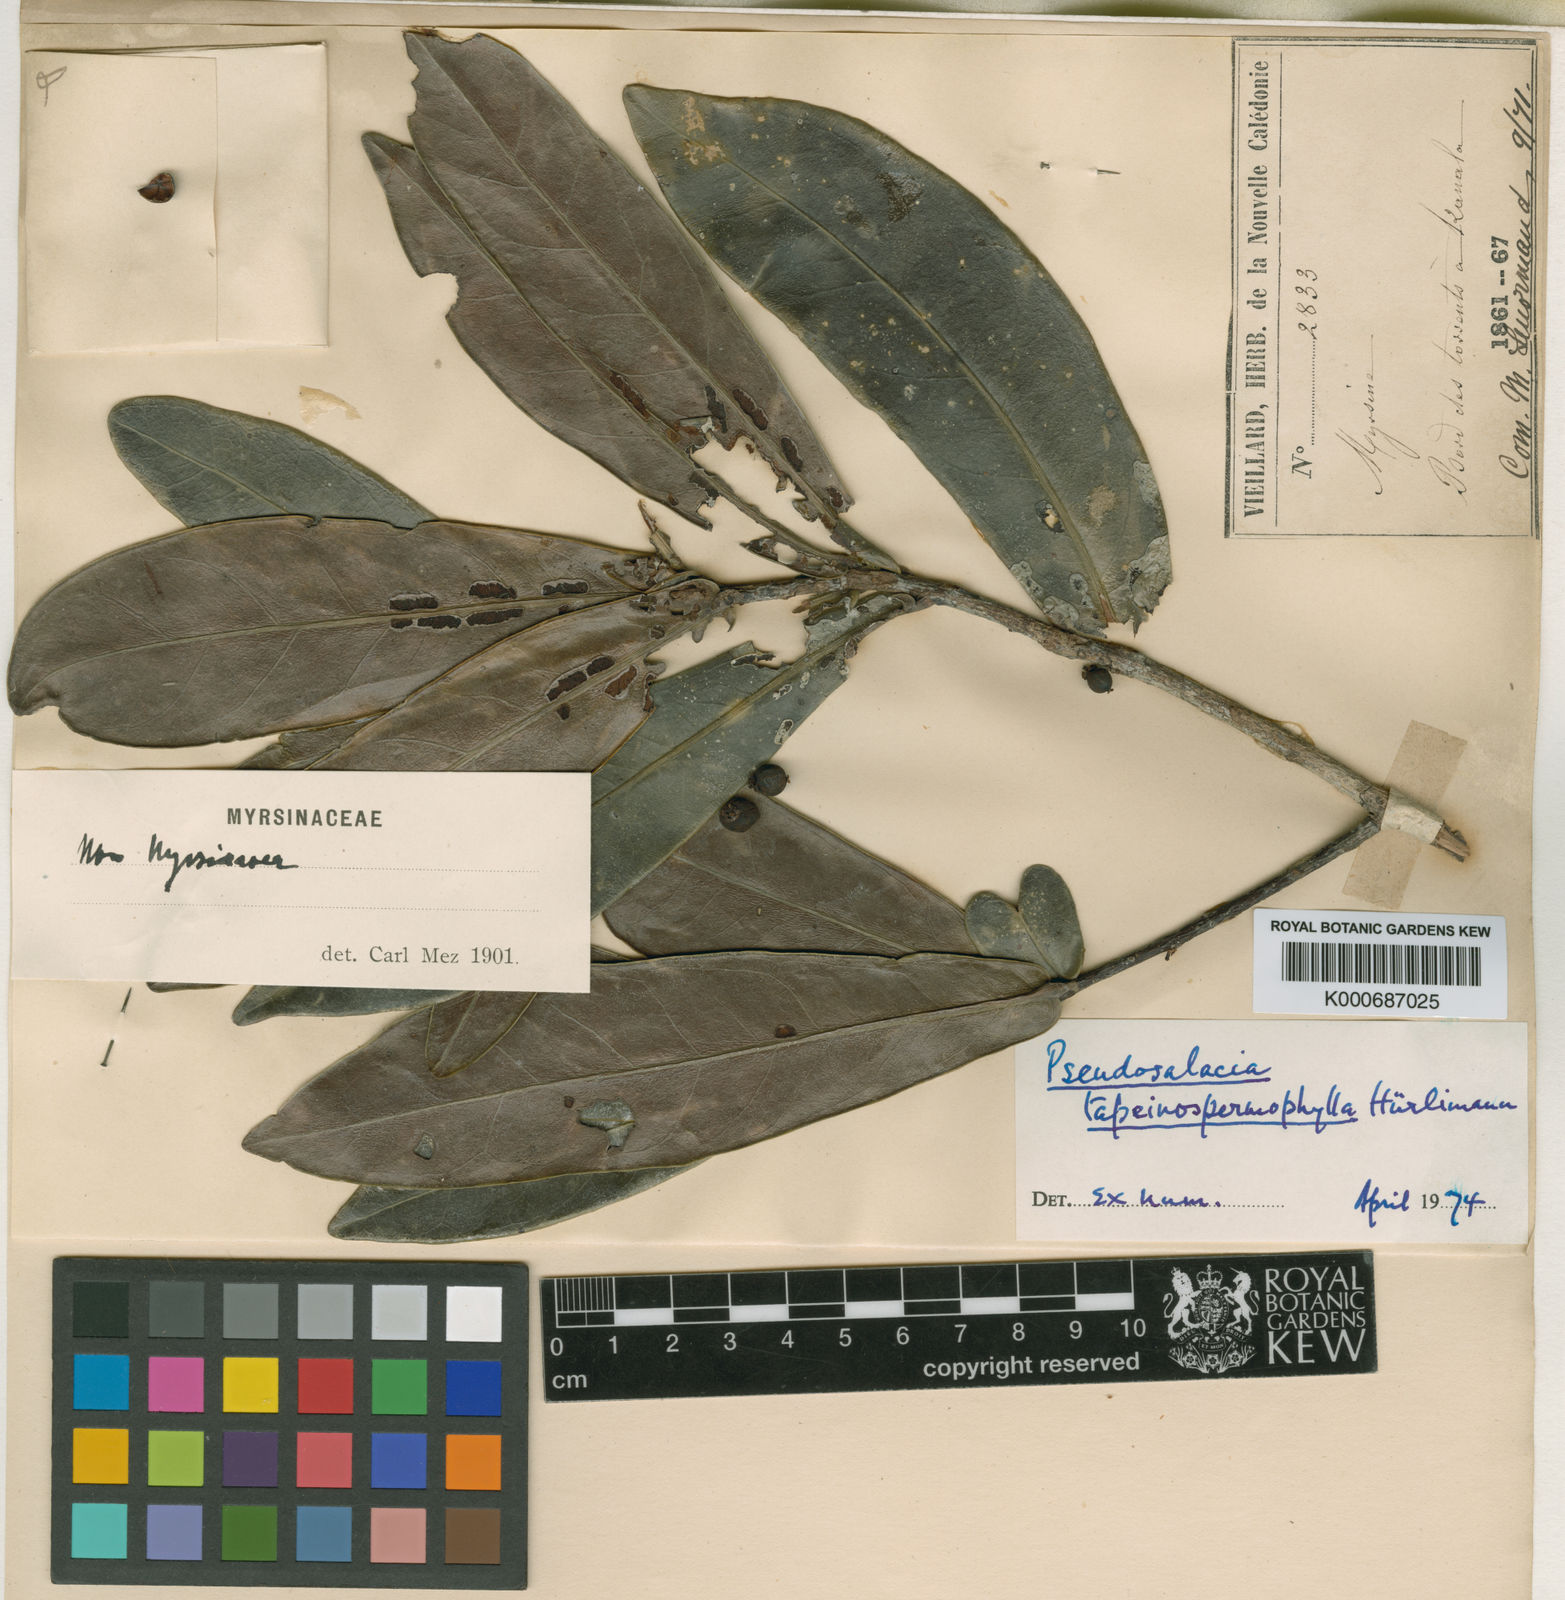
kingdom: Plantae
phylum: Tracheophyta
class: Magnoliopsida
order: Celastrales
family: Celastraceae
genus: Salaciopsis
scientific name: Salaciopsis neocaledonica
